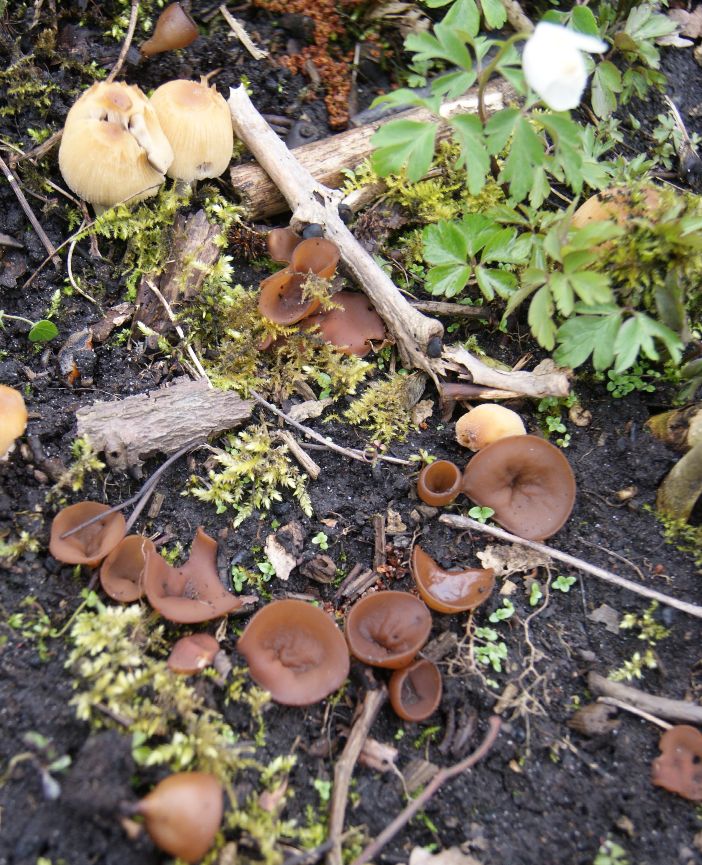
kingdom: Fungi
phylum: Ascomycota
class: Leotiomycetes
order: Helotiales
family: Sclerotiniaceae
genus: Dumontinia
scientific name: Dumontinia tuberosa
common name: anemone-knoldskive
